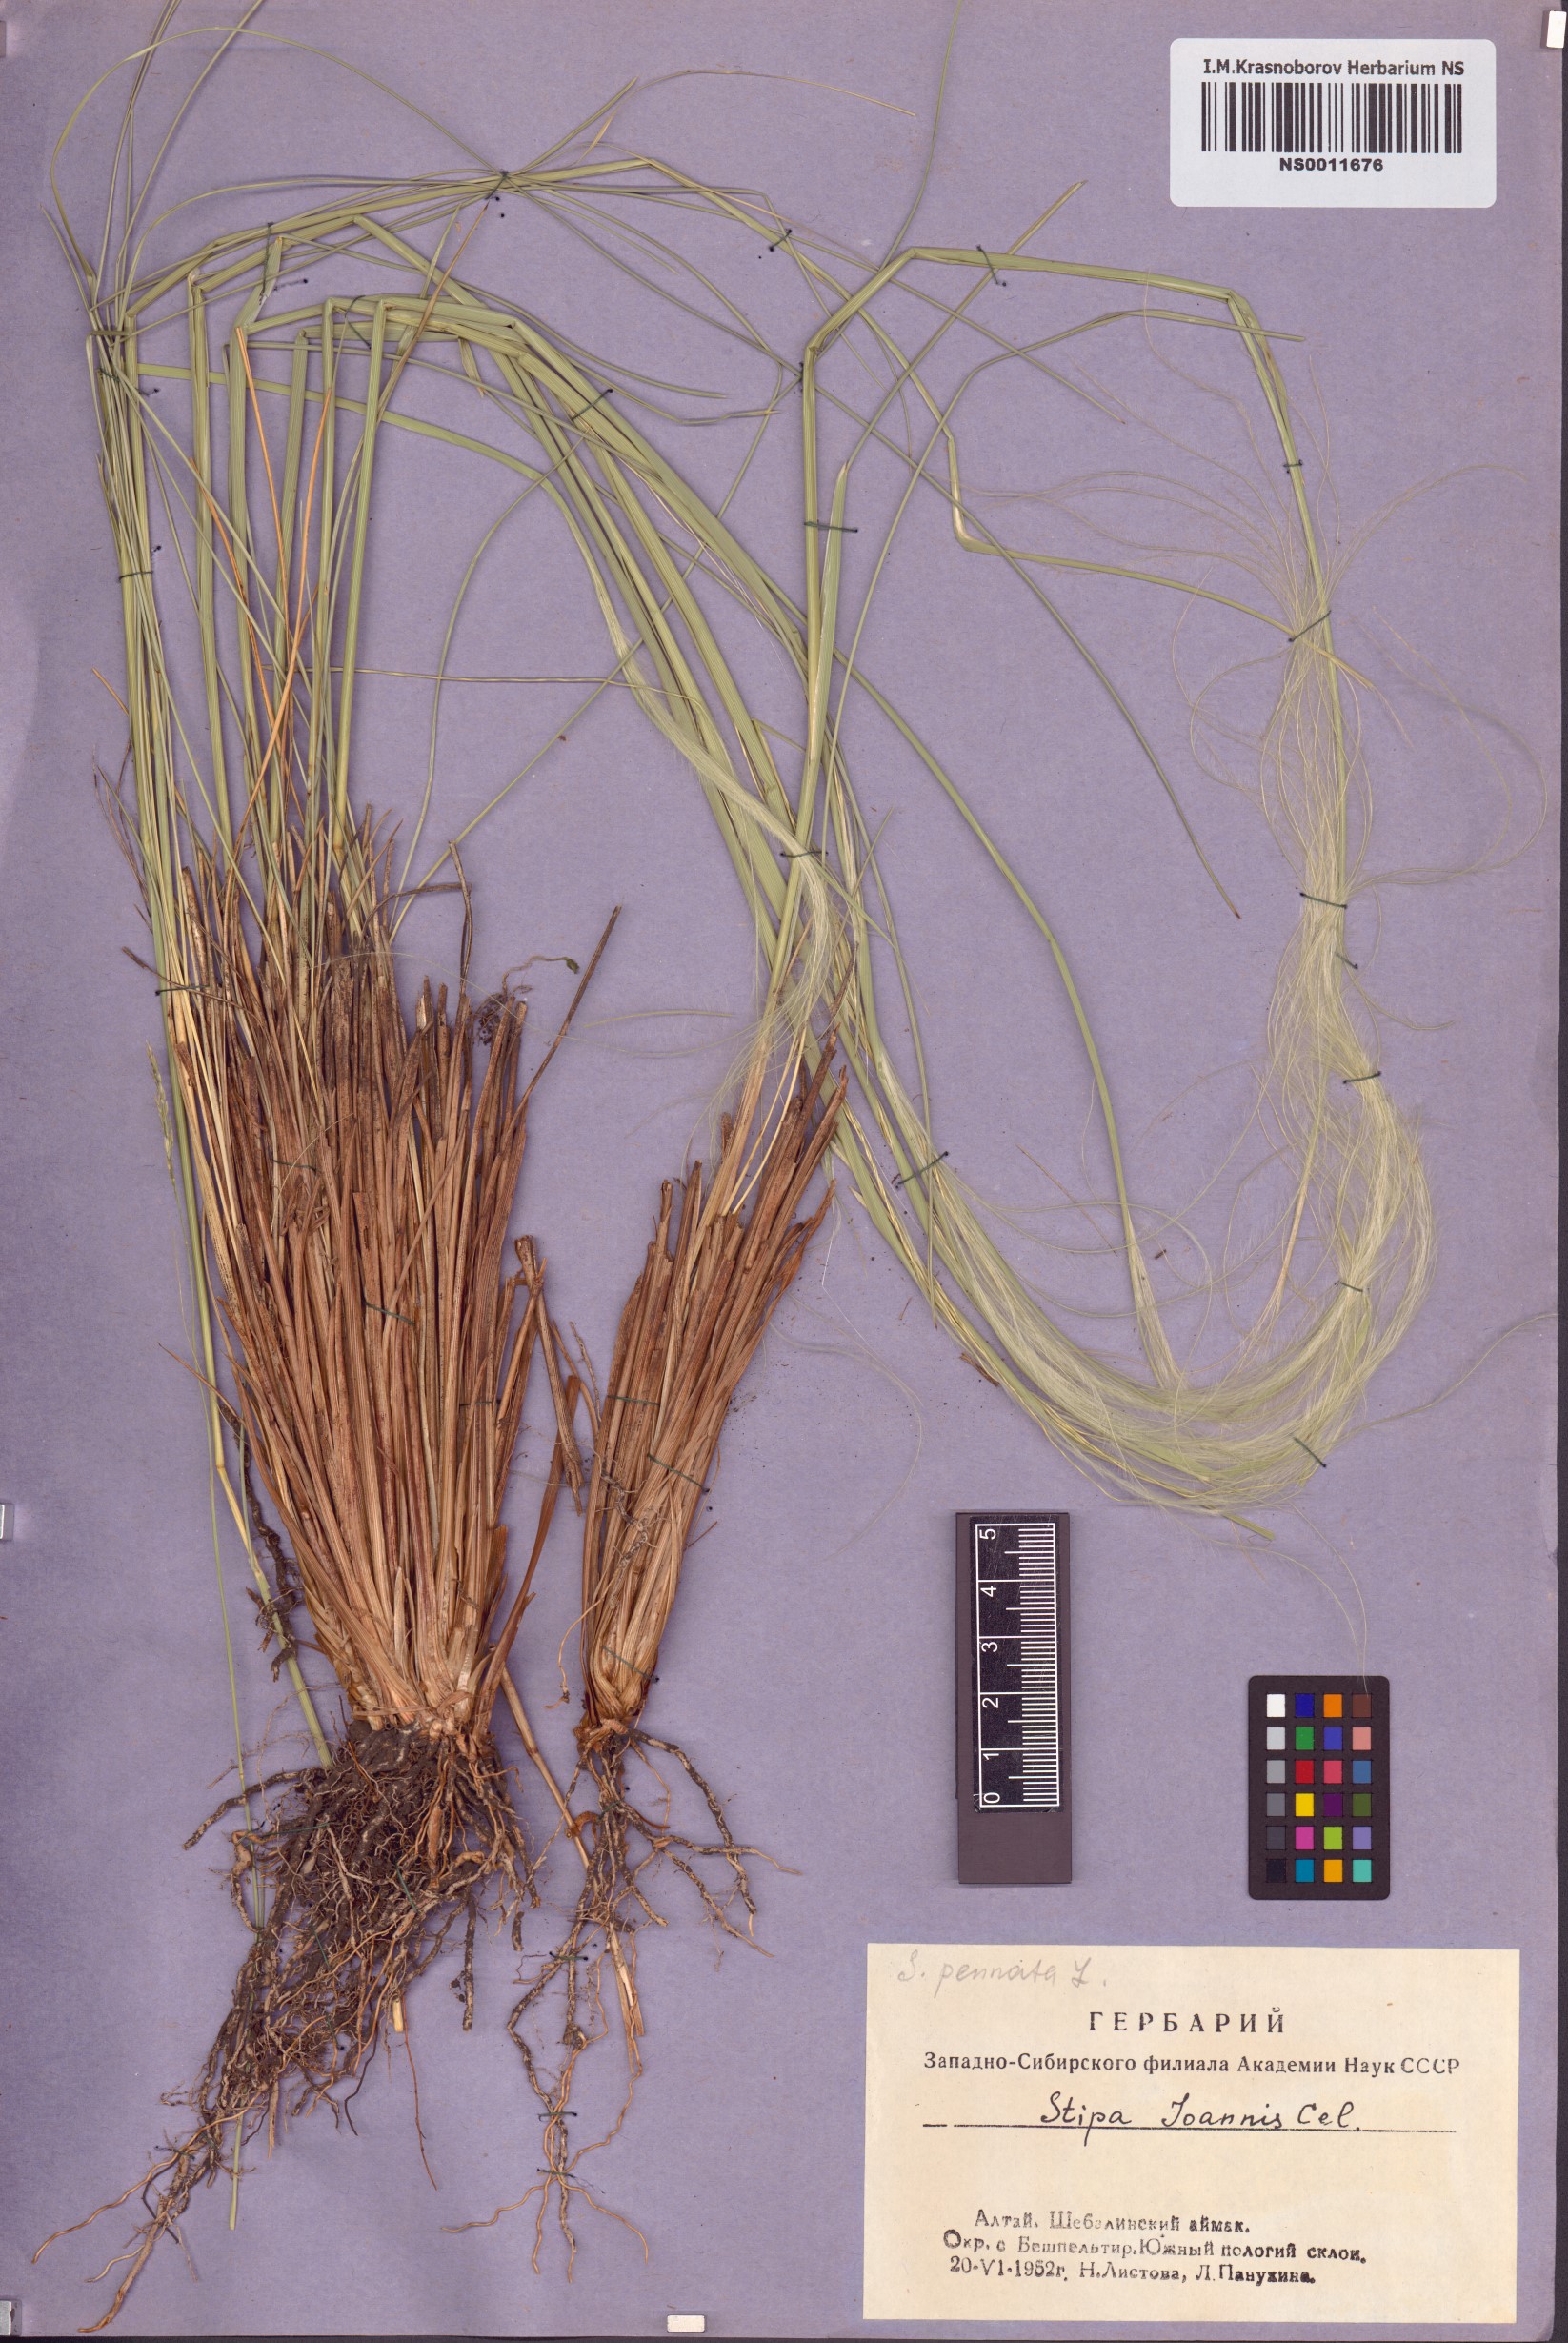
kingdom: Plantae
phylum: Tracheophyta
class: Liliopsida
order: Poales
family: Poaceae
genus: Stipa
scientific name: Stipa pennata
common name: European feather grass
